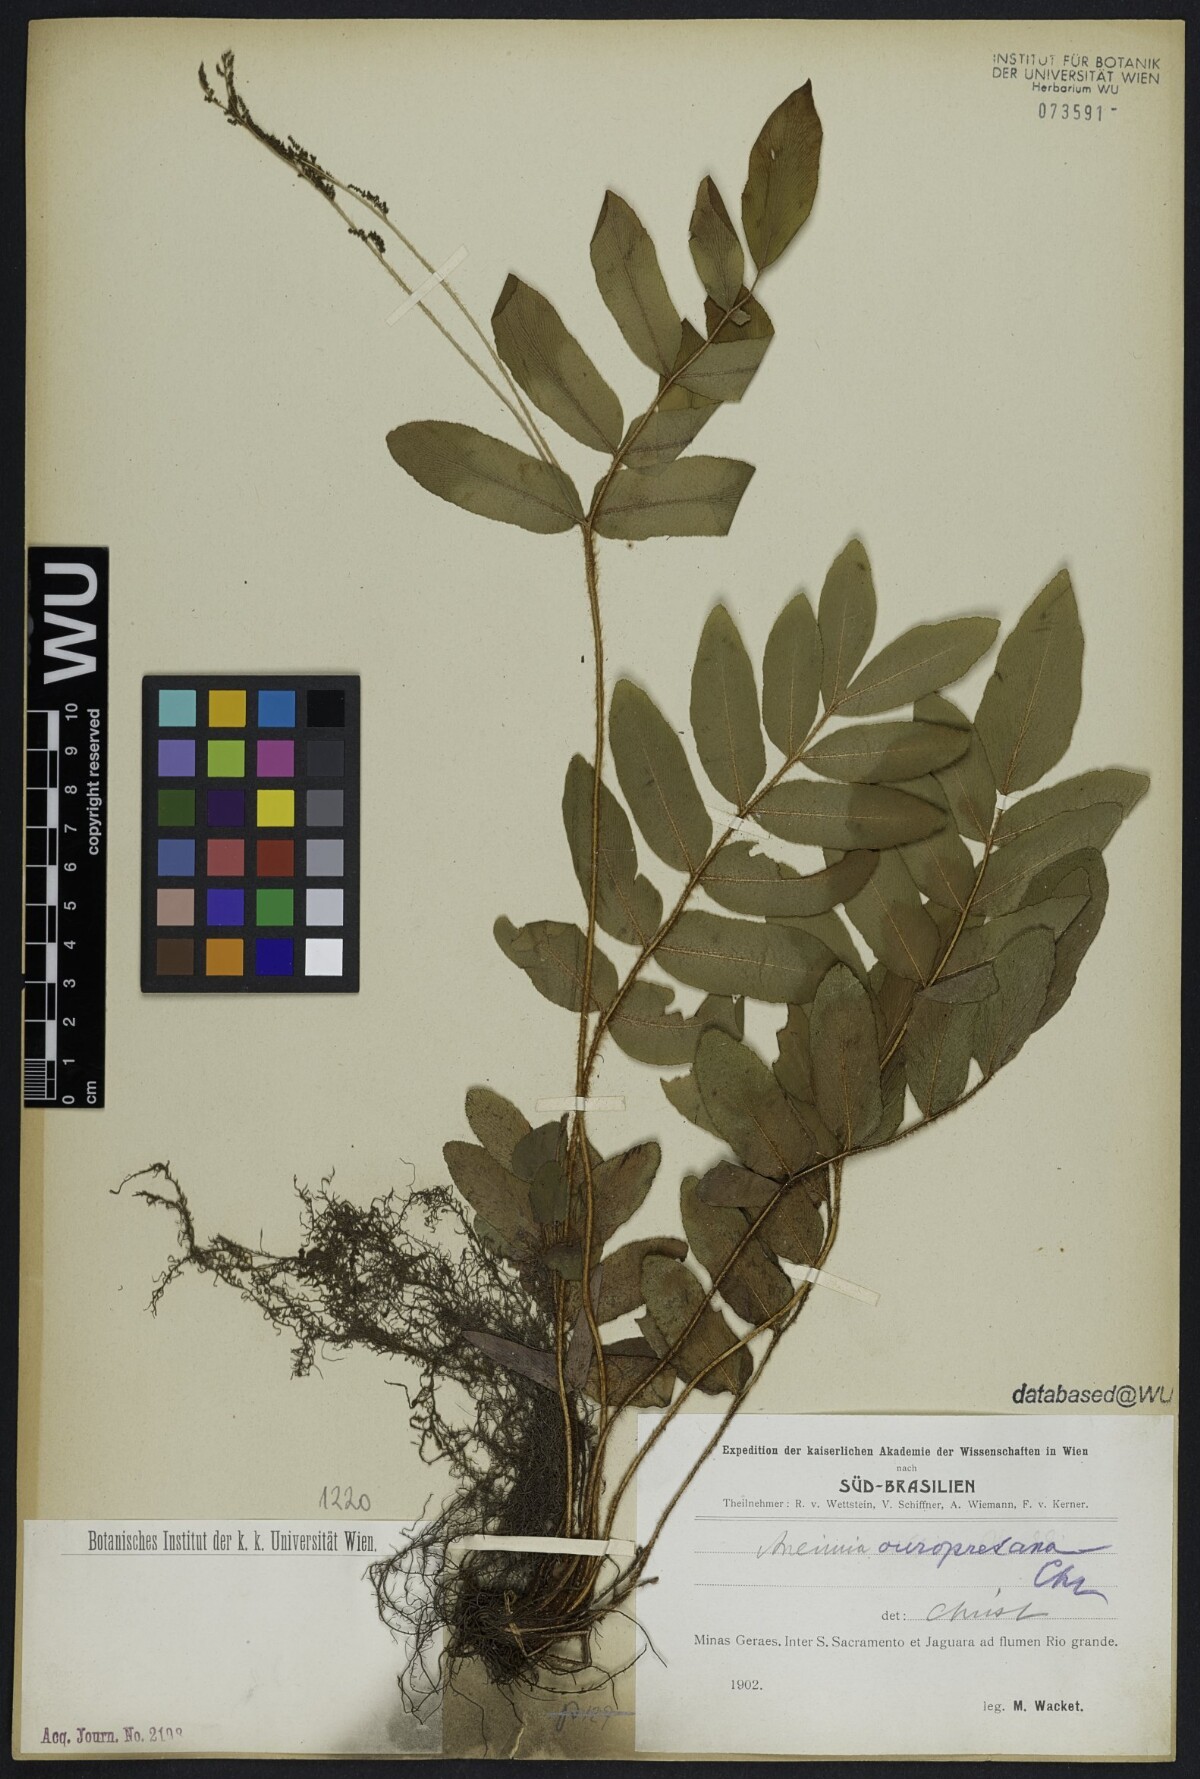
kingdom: Plantae
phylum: Tracheophyta
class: Polypodiopsida
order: Schizaeales
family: Anemiaceae
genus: Anemia
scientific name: Anemia nervosa
